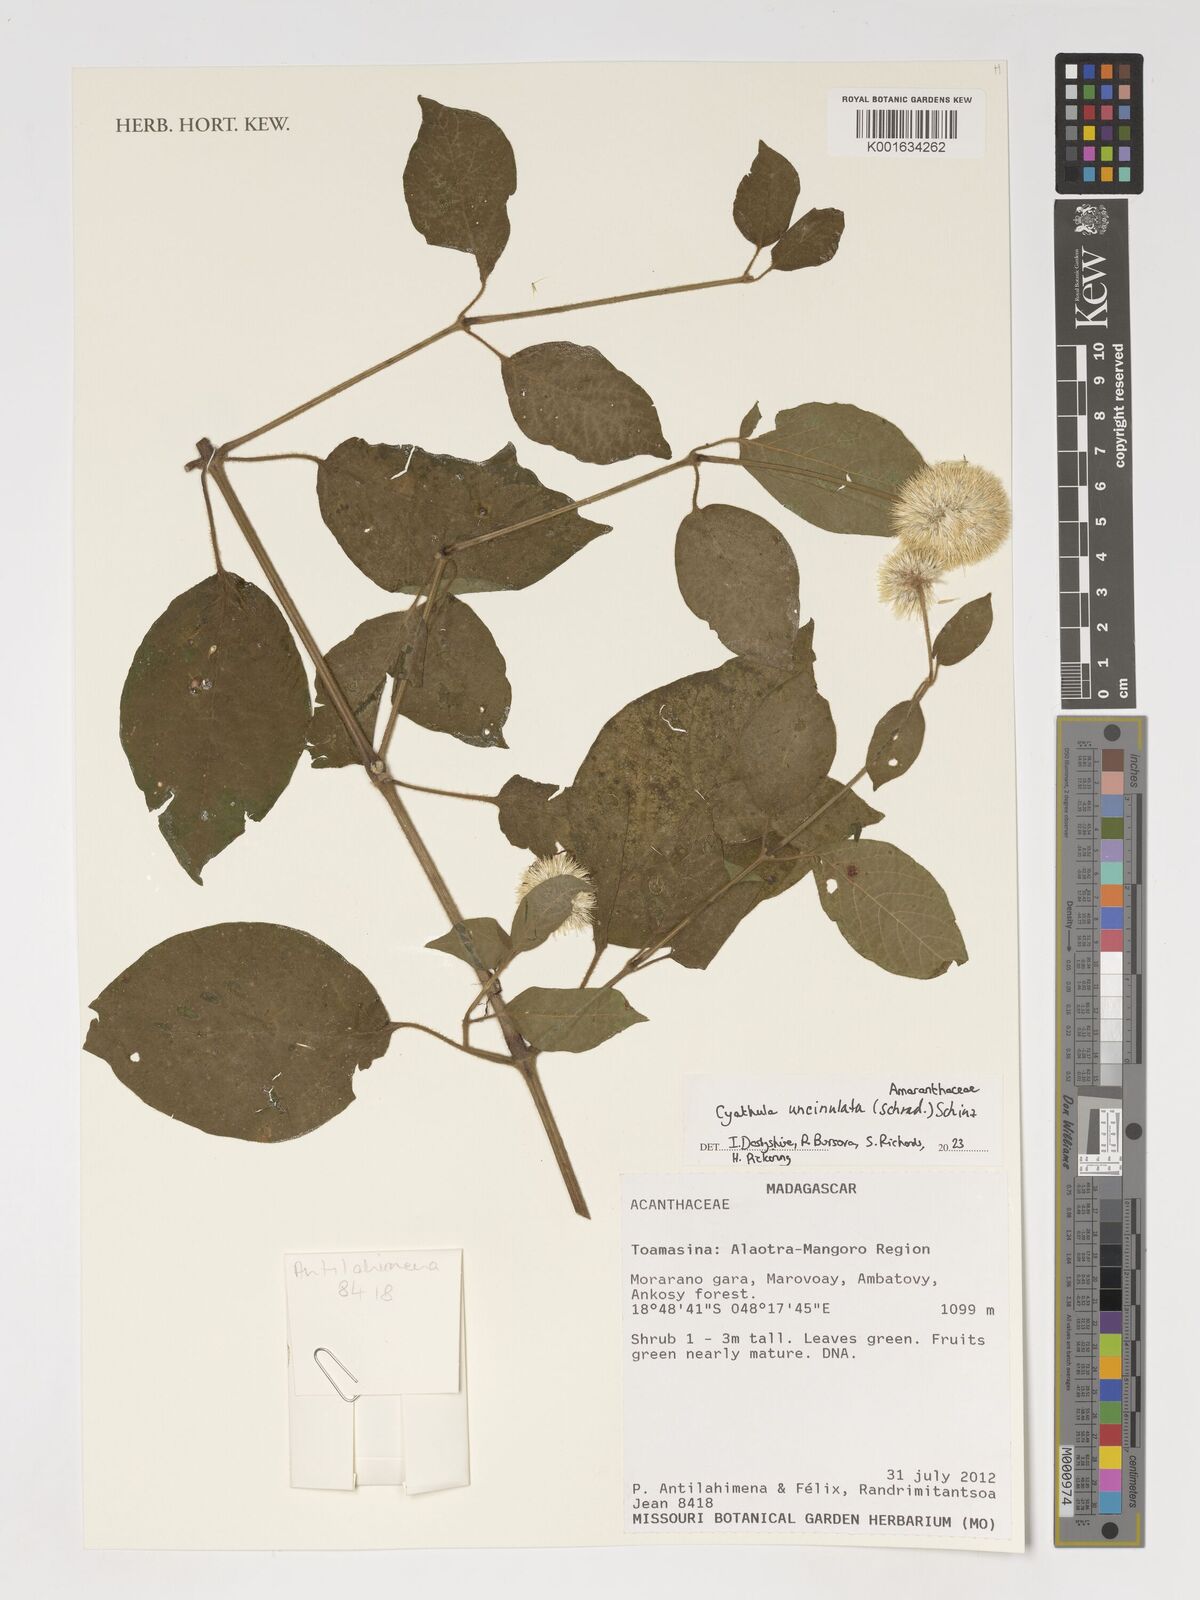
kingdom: Plantae
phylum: Tracheophyta
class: Magnoliopsida
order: Caryophyllales
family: Amaranthaceae
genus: Cyathula
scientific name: Cyathula uncinulata
